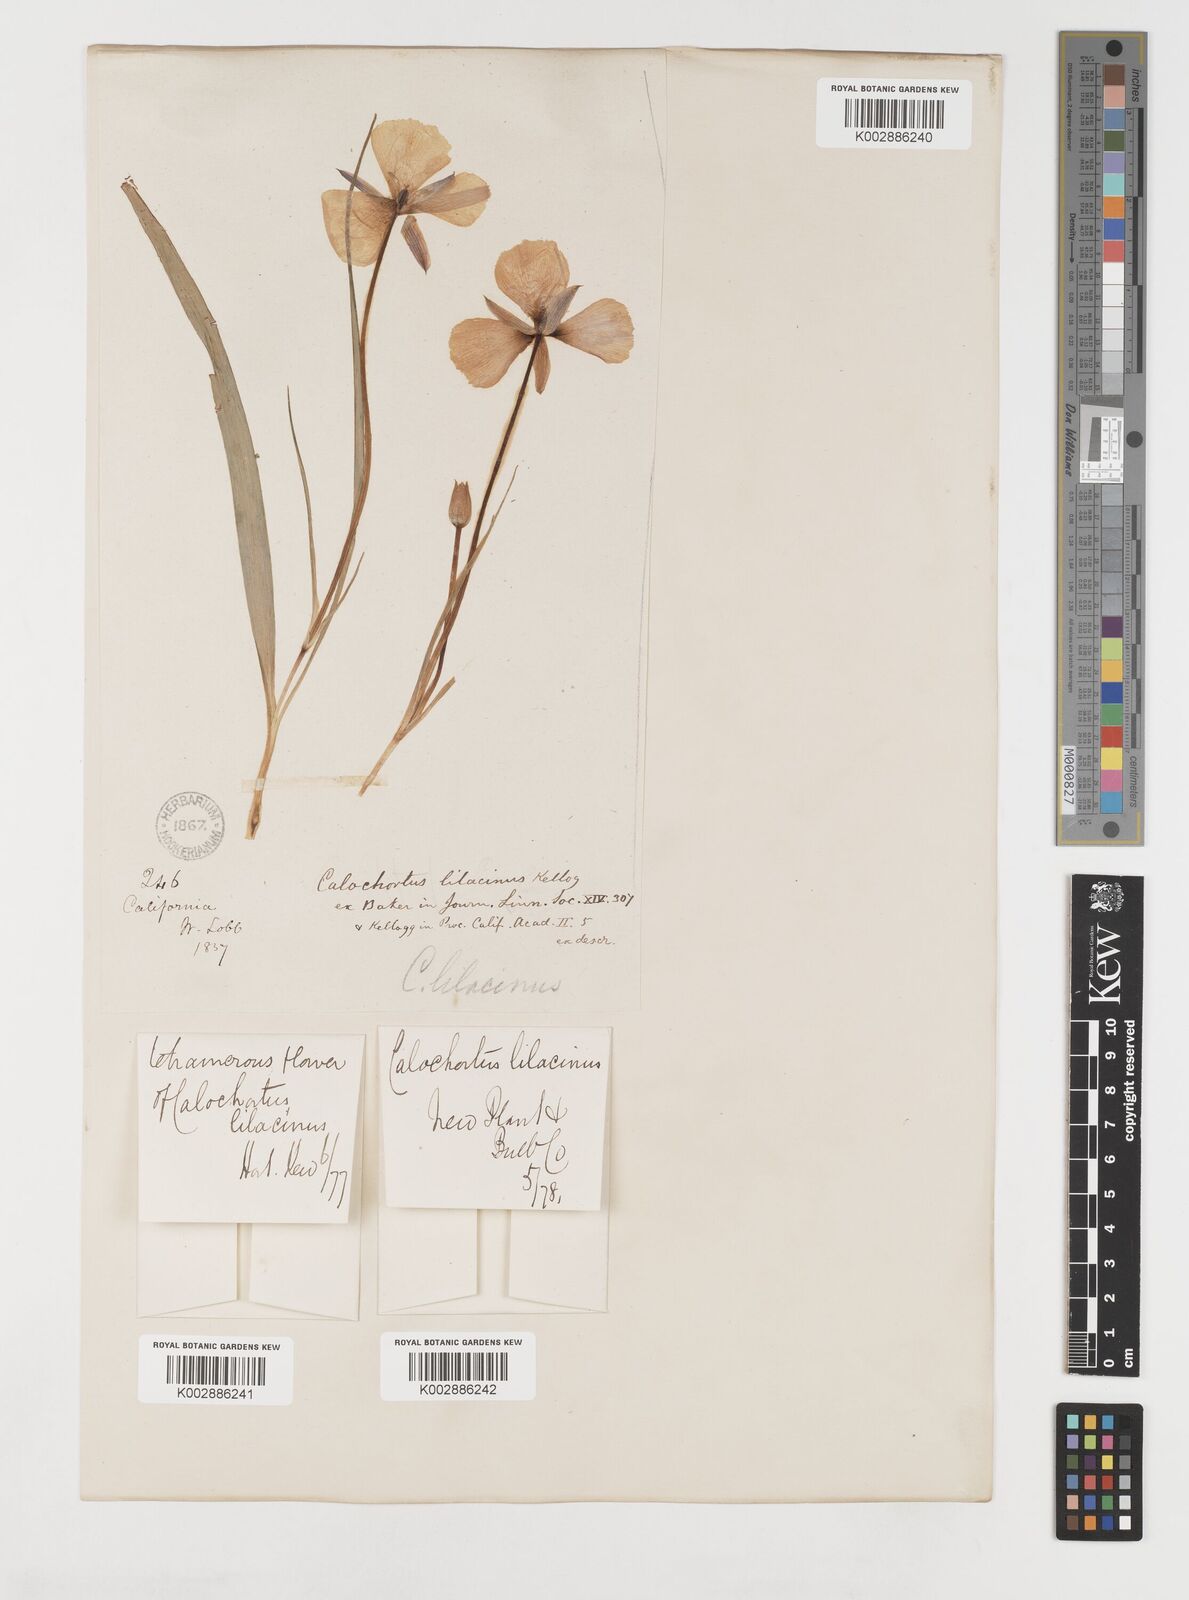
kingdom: Plantae
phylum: Tracheophyta
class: Liliopsida
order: Liliales
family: Liliaceae
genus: Calochortus
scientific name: Calochortus uniflorus
